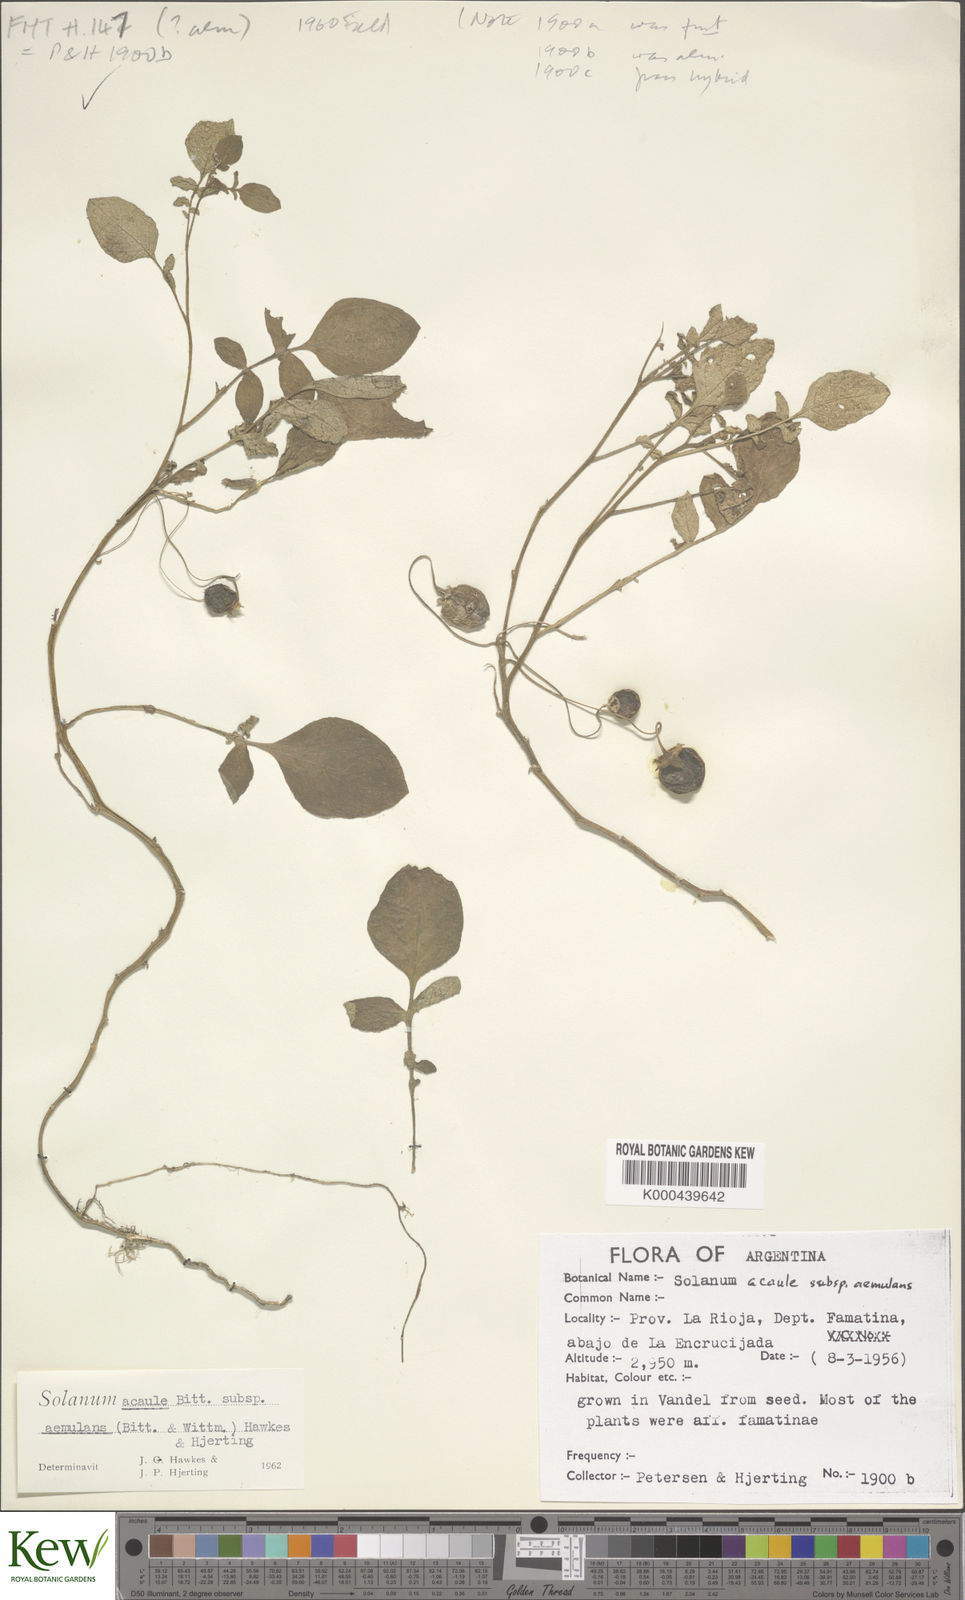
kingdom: Plantae
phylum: Tracheophyta
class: Magnoliopsida
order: Solanales
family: Solanaceae
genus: Solanum
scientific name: Solanum aemulans
